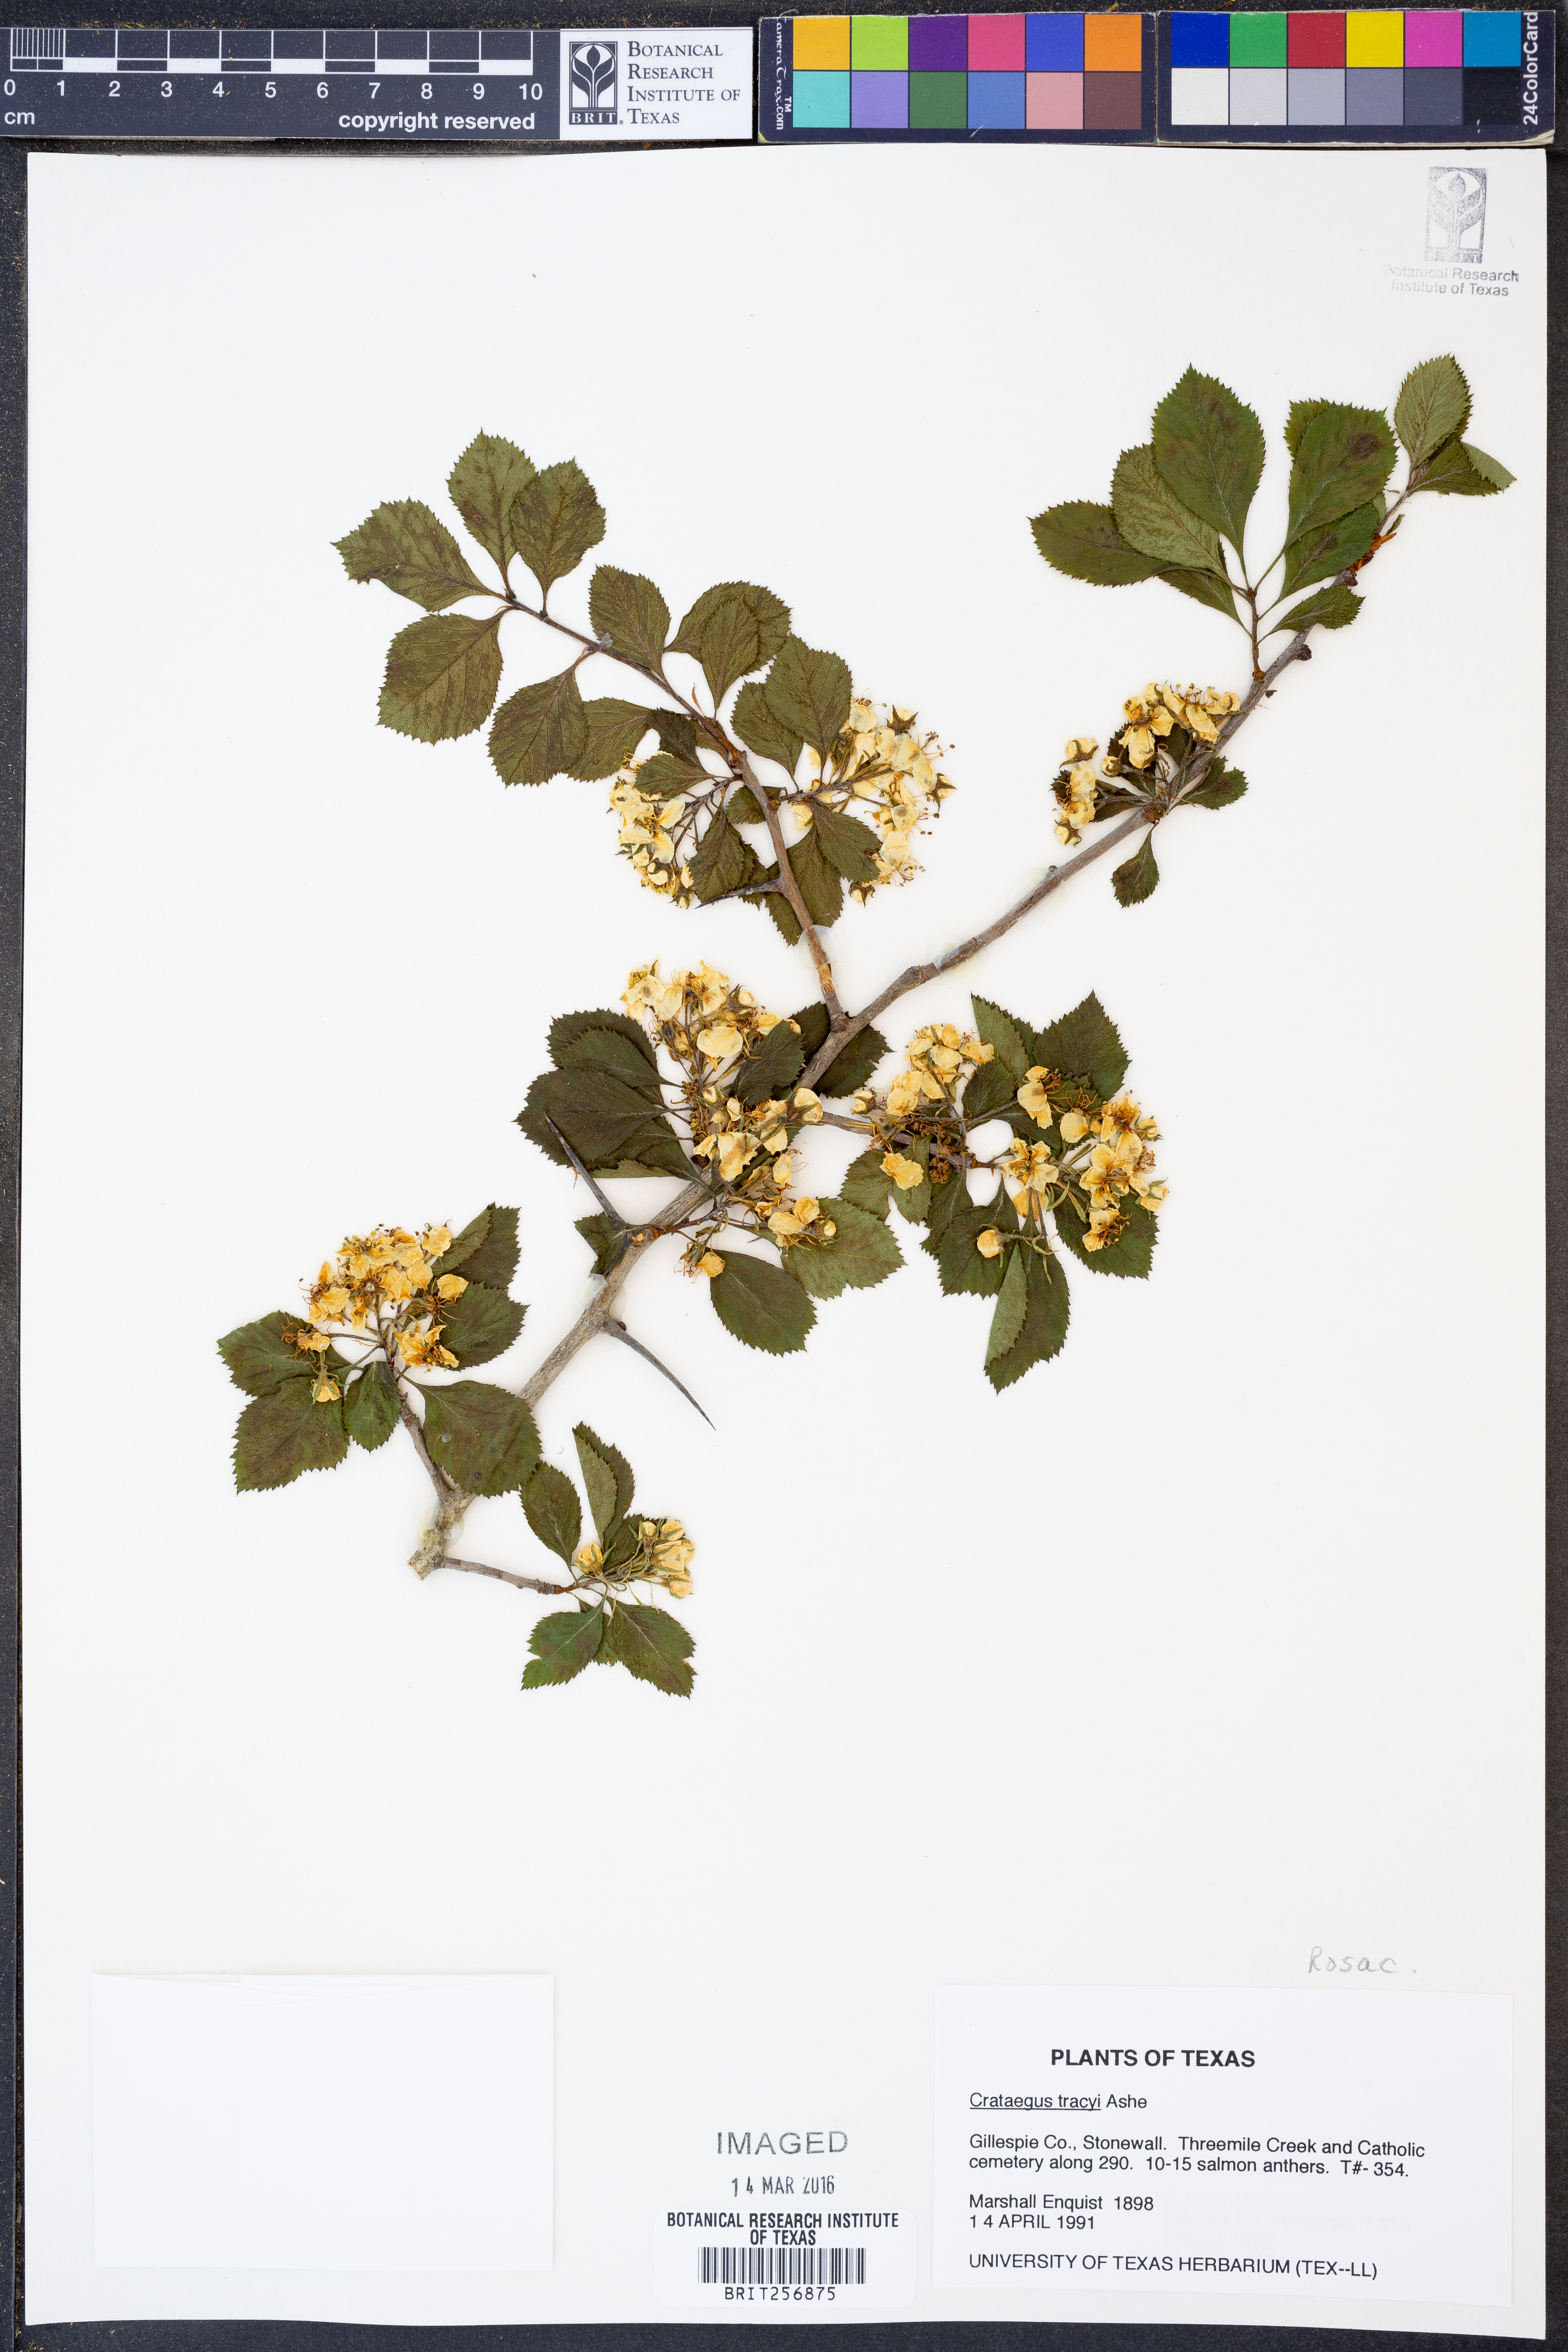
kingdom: Plantae
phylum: Tracheophyta
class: Magnoliopsida
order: Rosales
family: Rosaceae
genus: Crataegus
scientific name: Crataegus tracyi
